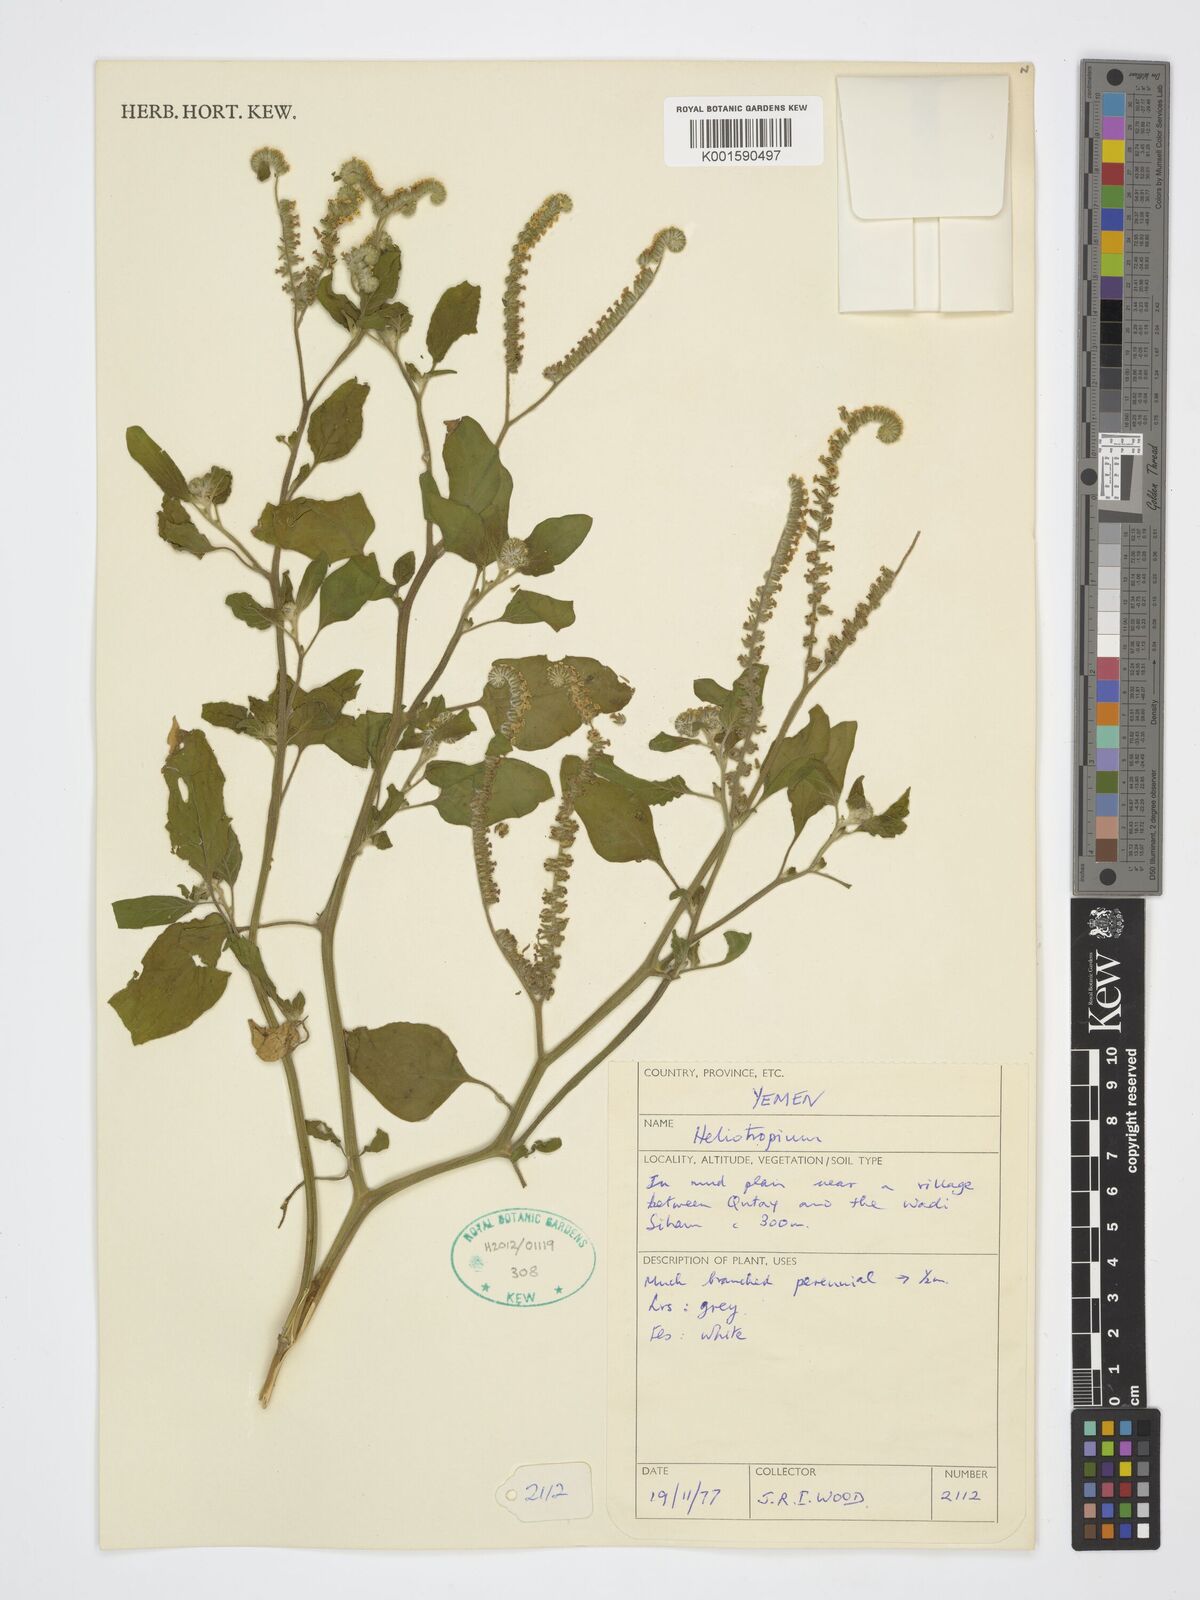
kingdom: Plantae
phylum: Tracheophyta
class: Magnoliopsida
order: Boraginales
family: Heliotropiaceae
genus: Heliotropium
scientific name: Heliotropium
